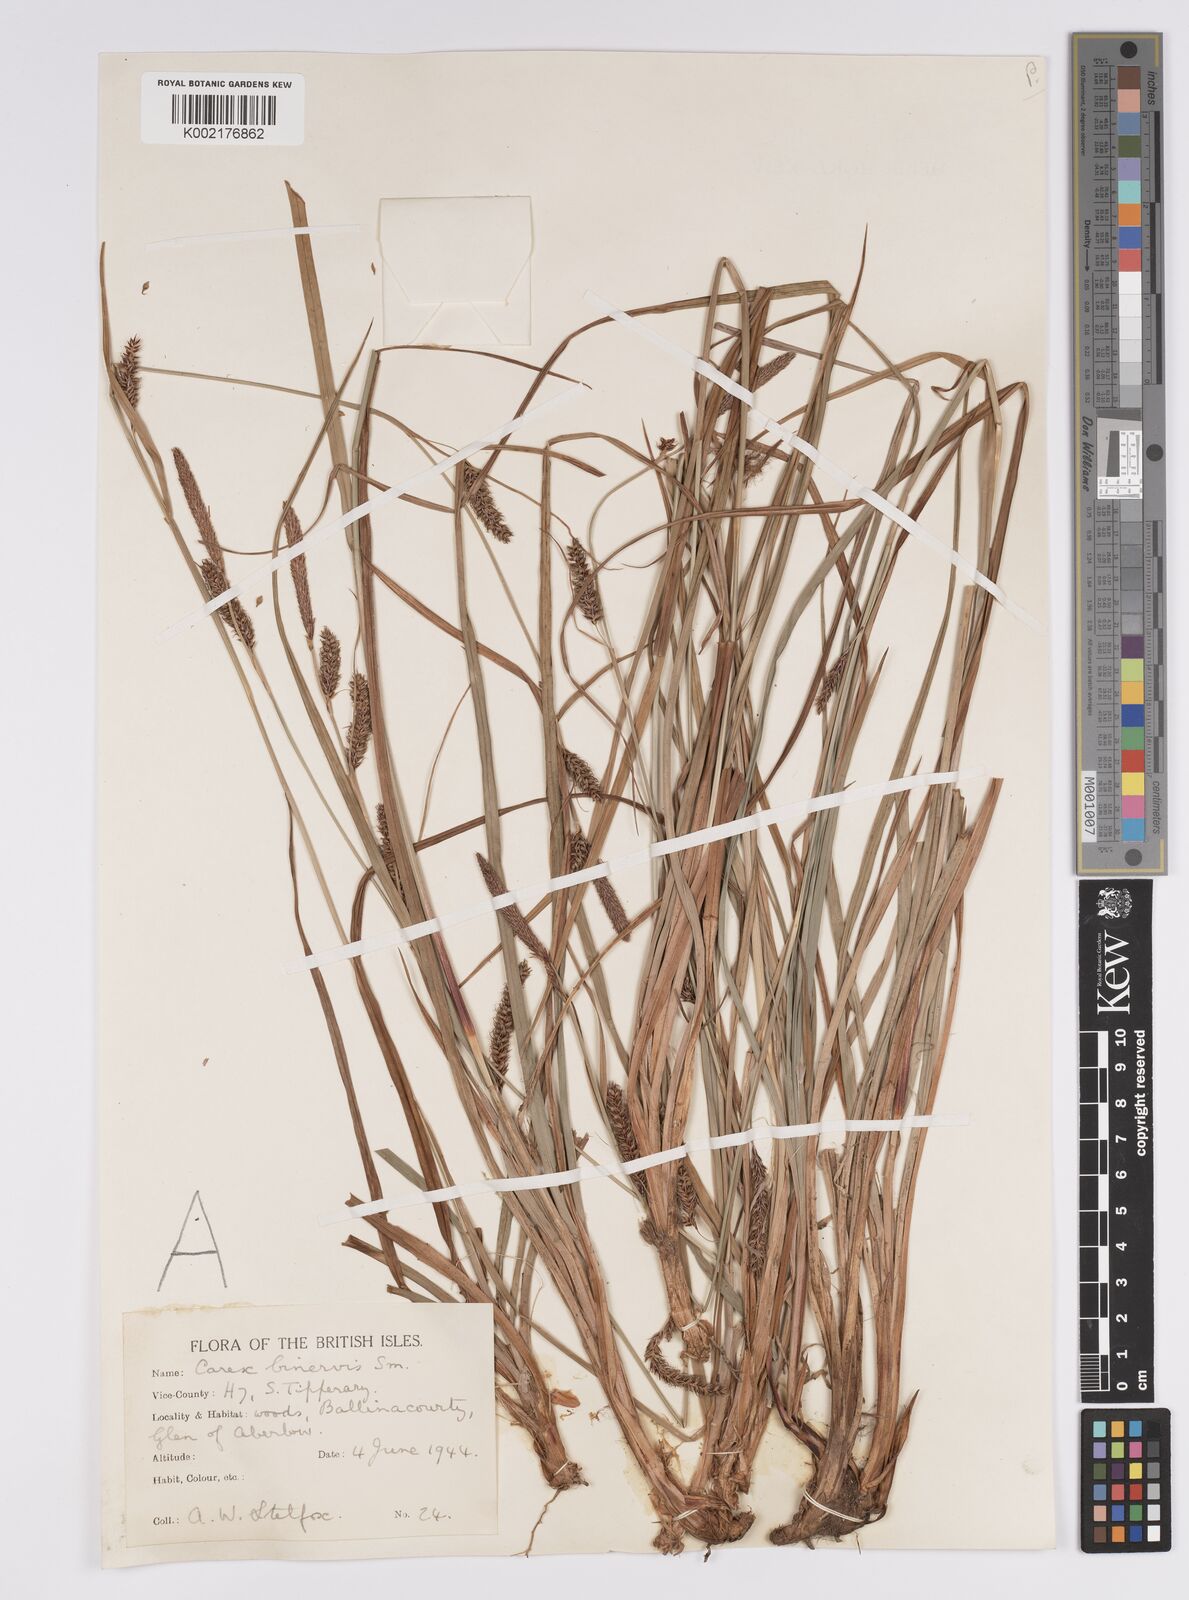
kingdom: Plantae
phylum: Tracheophyta
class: Liliopsida
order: Poales
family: Cyperaceae
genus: Carex
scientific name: Carex binervis
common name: Green-ribbed sedge
